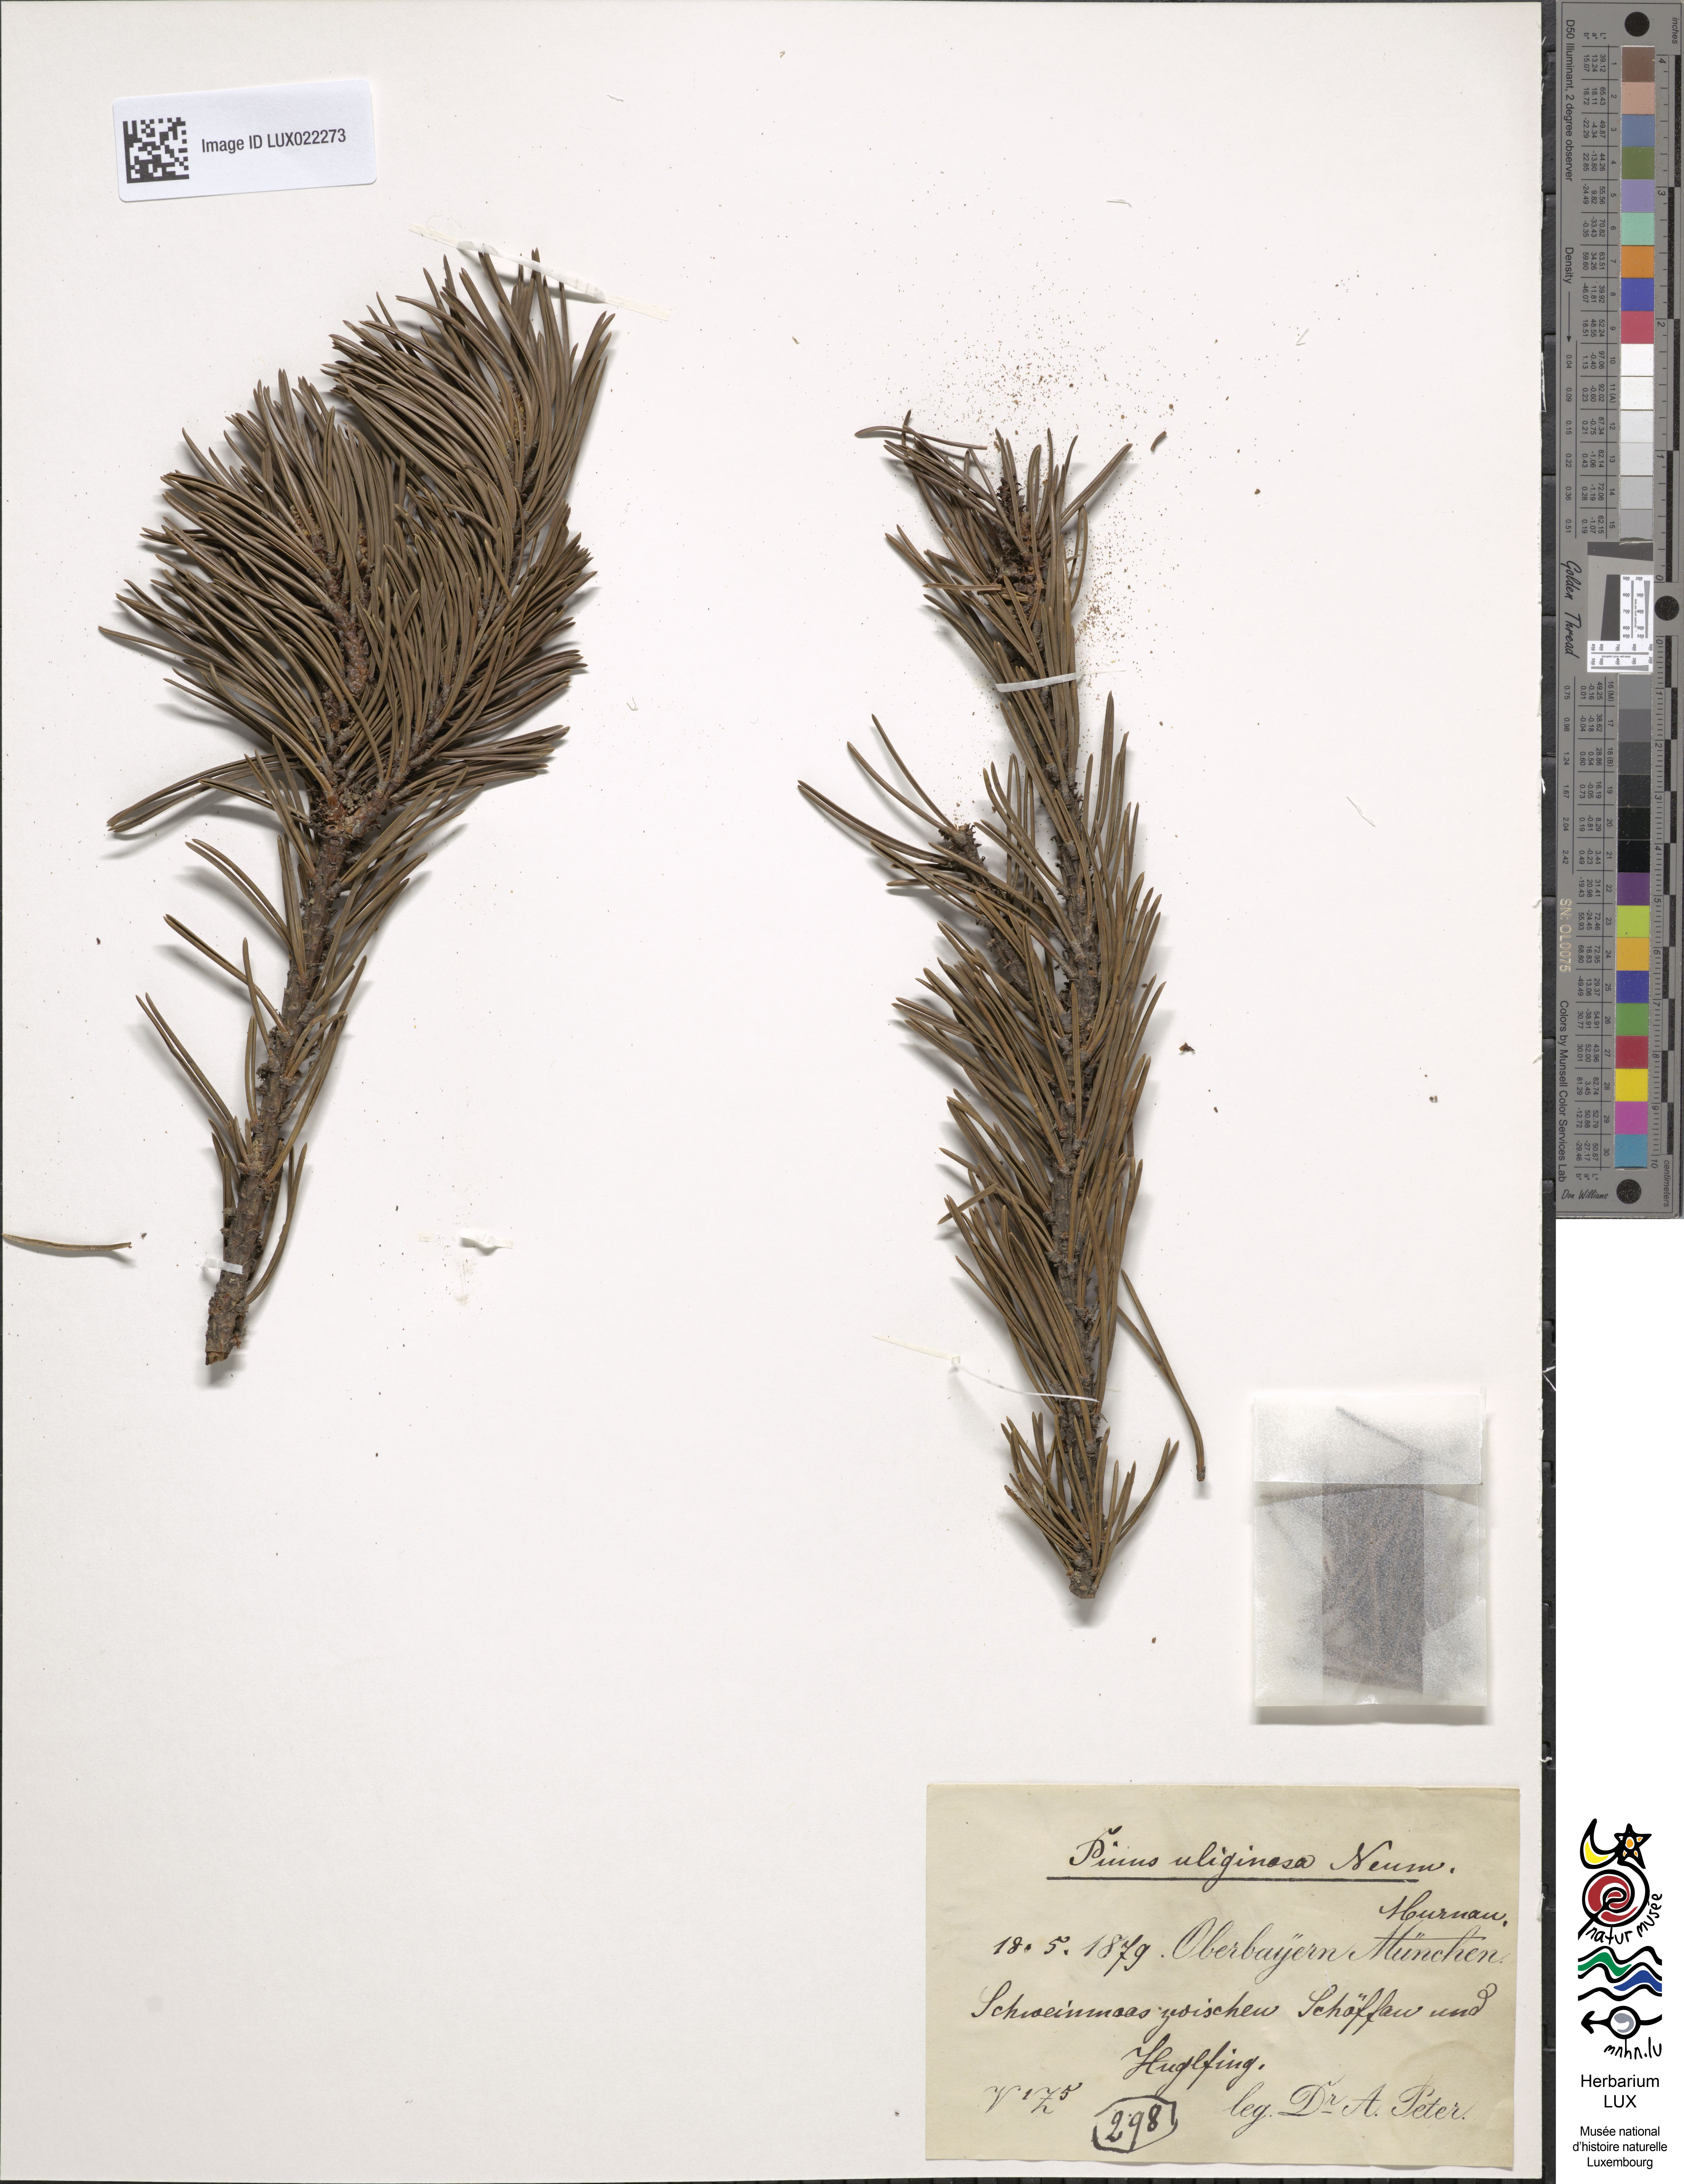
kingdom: Plantae
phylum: Tracheophyta
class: Pinopsida
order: Pinales
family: Pinaceae
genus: Pinus
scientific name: Pinus mugo
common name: Mugo pine
